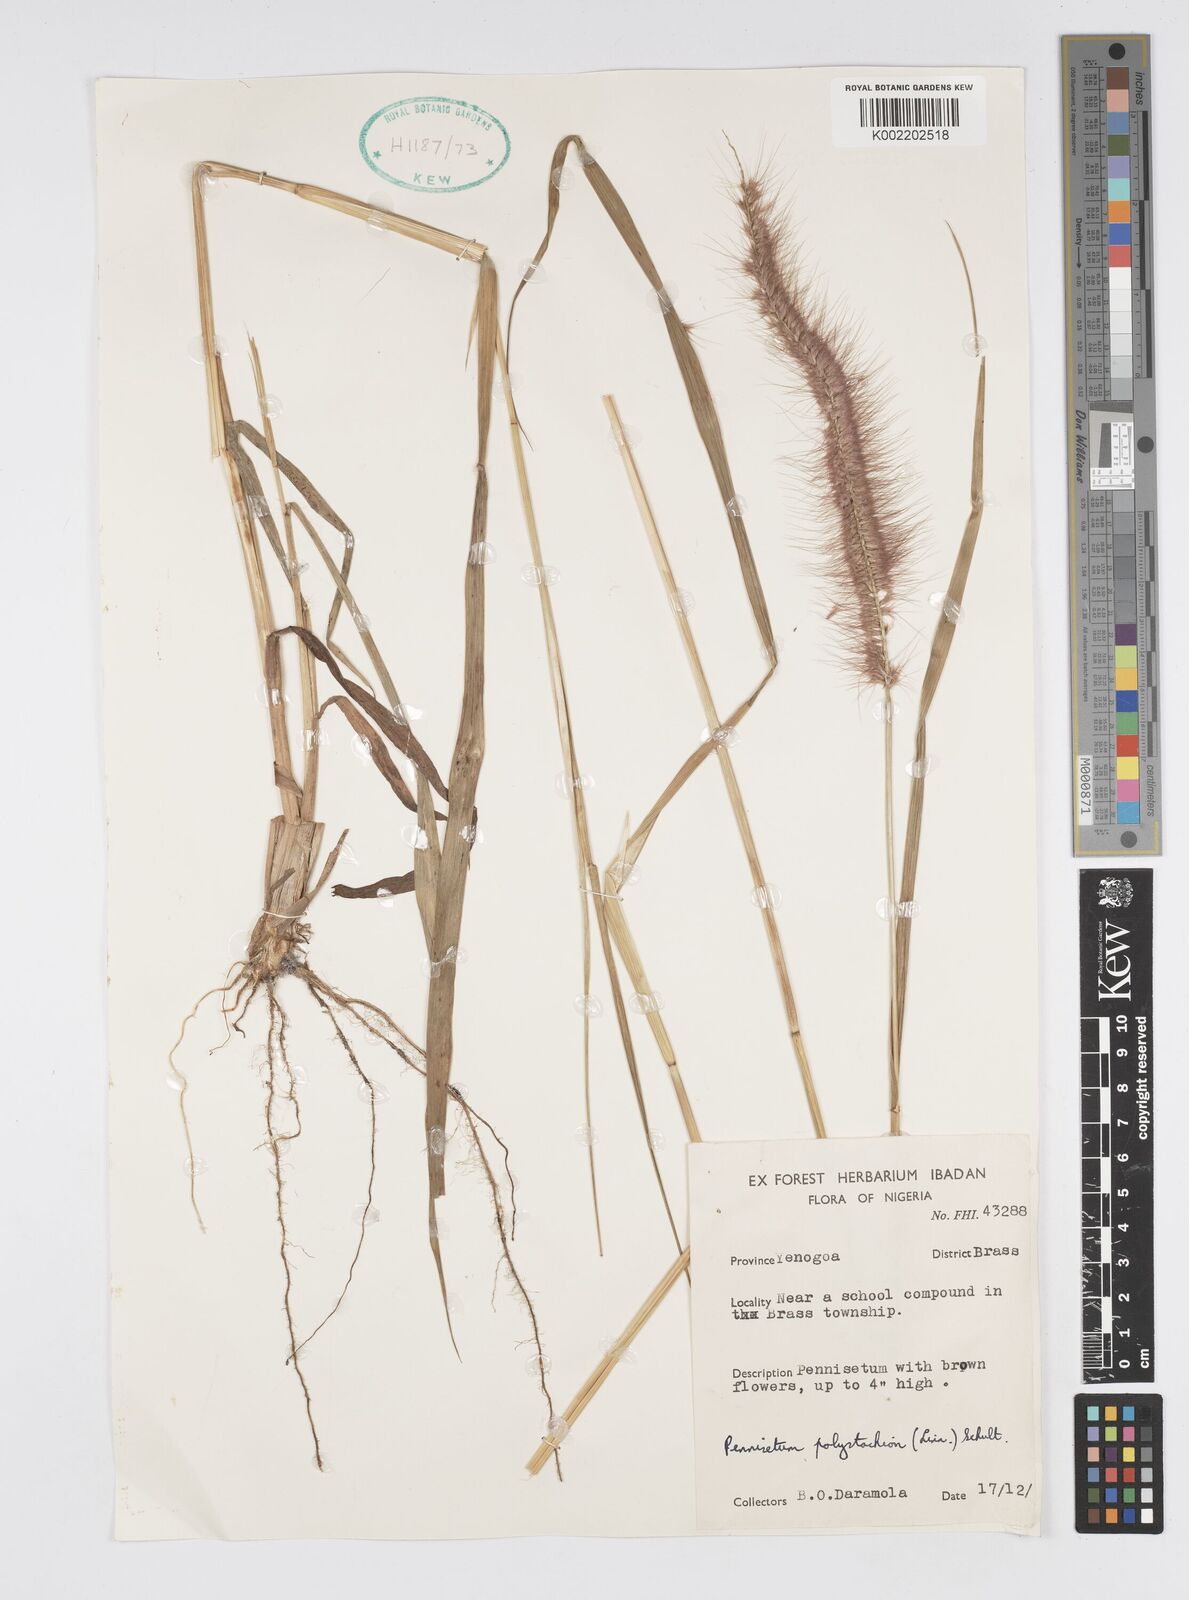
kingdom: Plantae
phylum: Tracheophyta
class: Liliopsida
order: Poales
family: Poaceae
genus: Cenchrus
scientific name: Cenchrus Pennisetum spec
